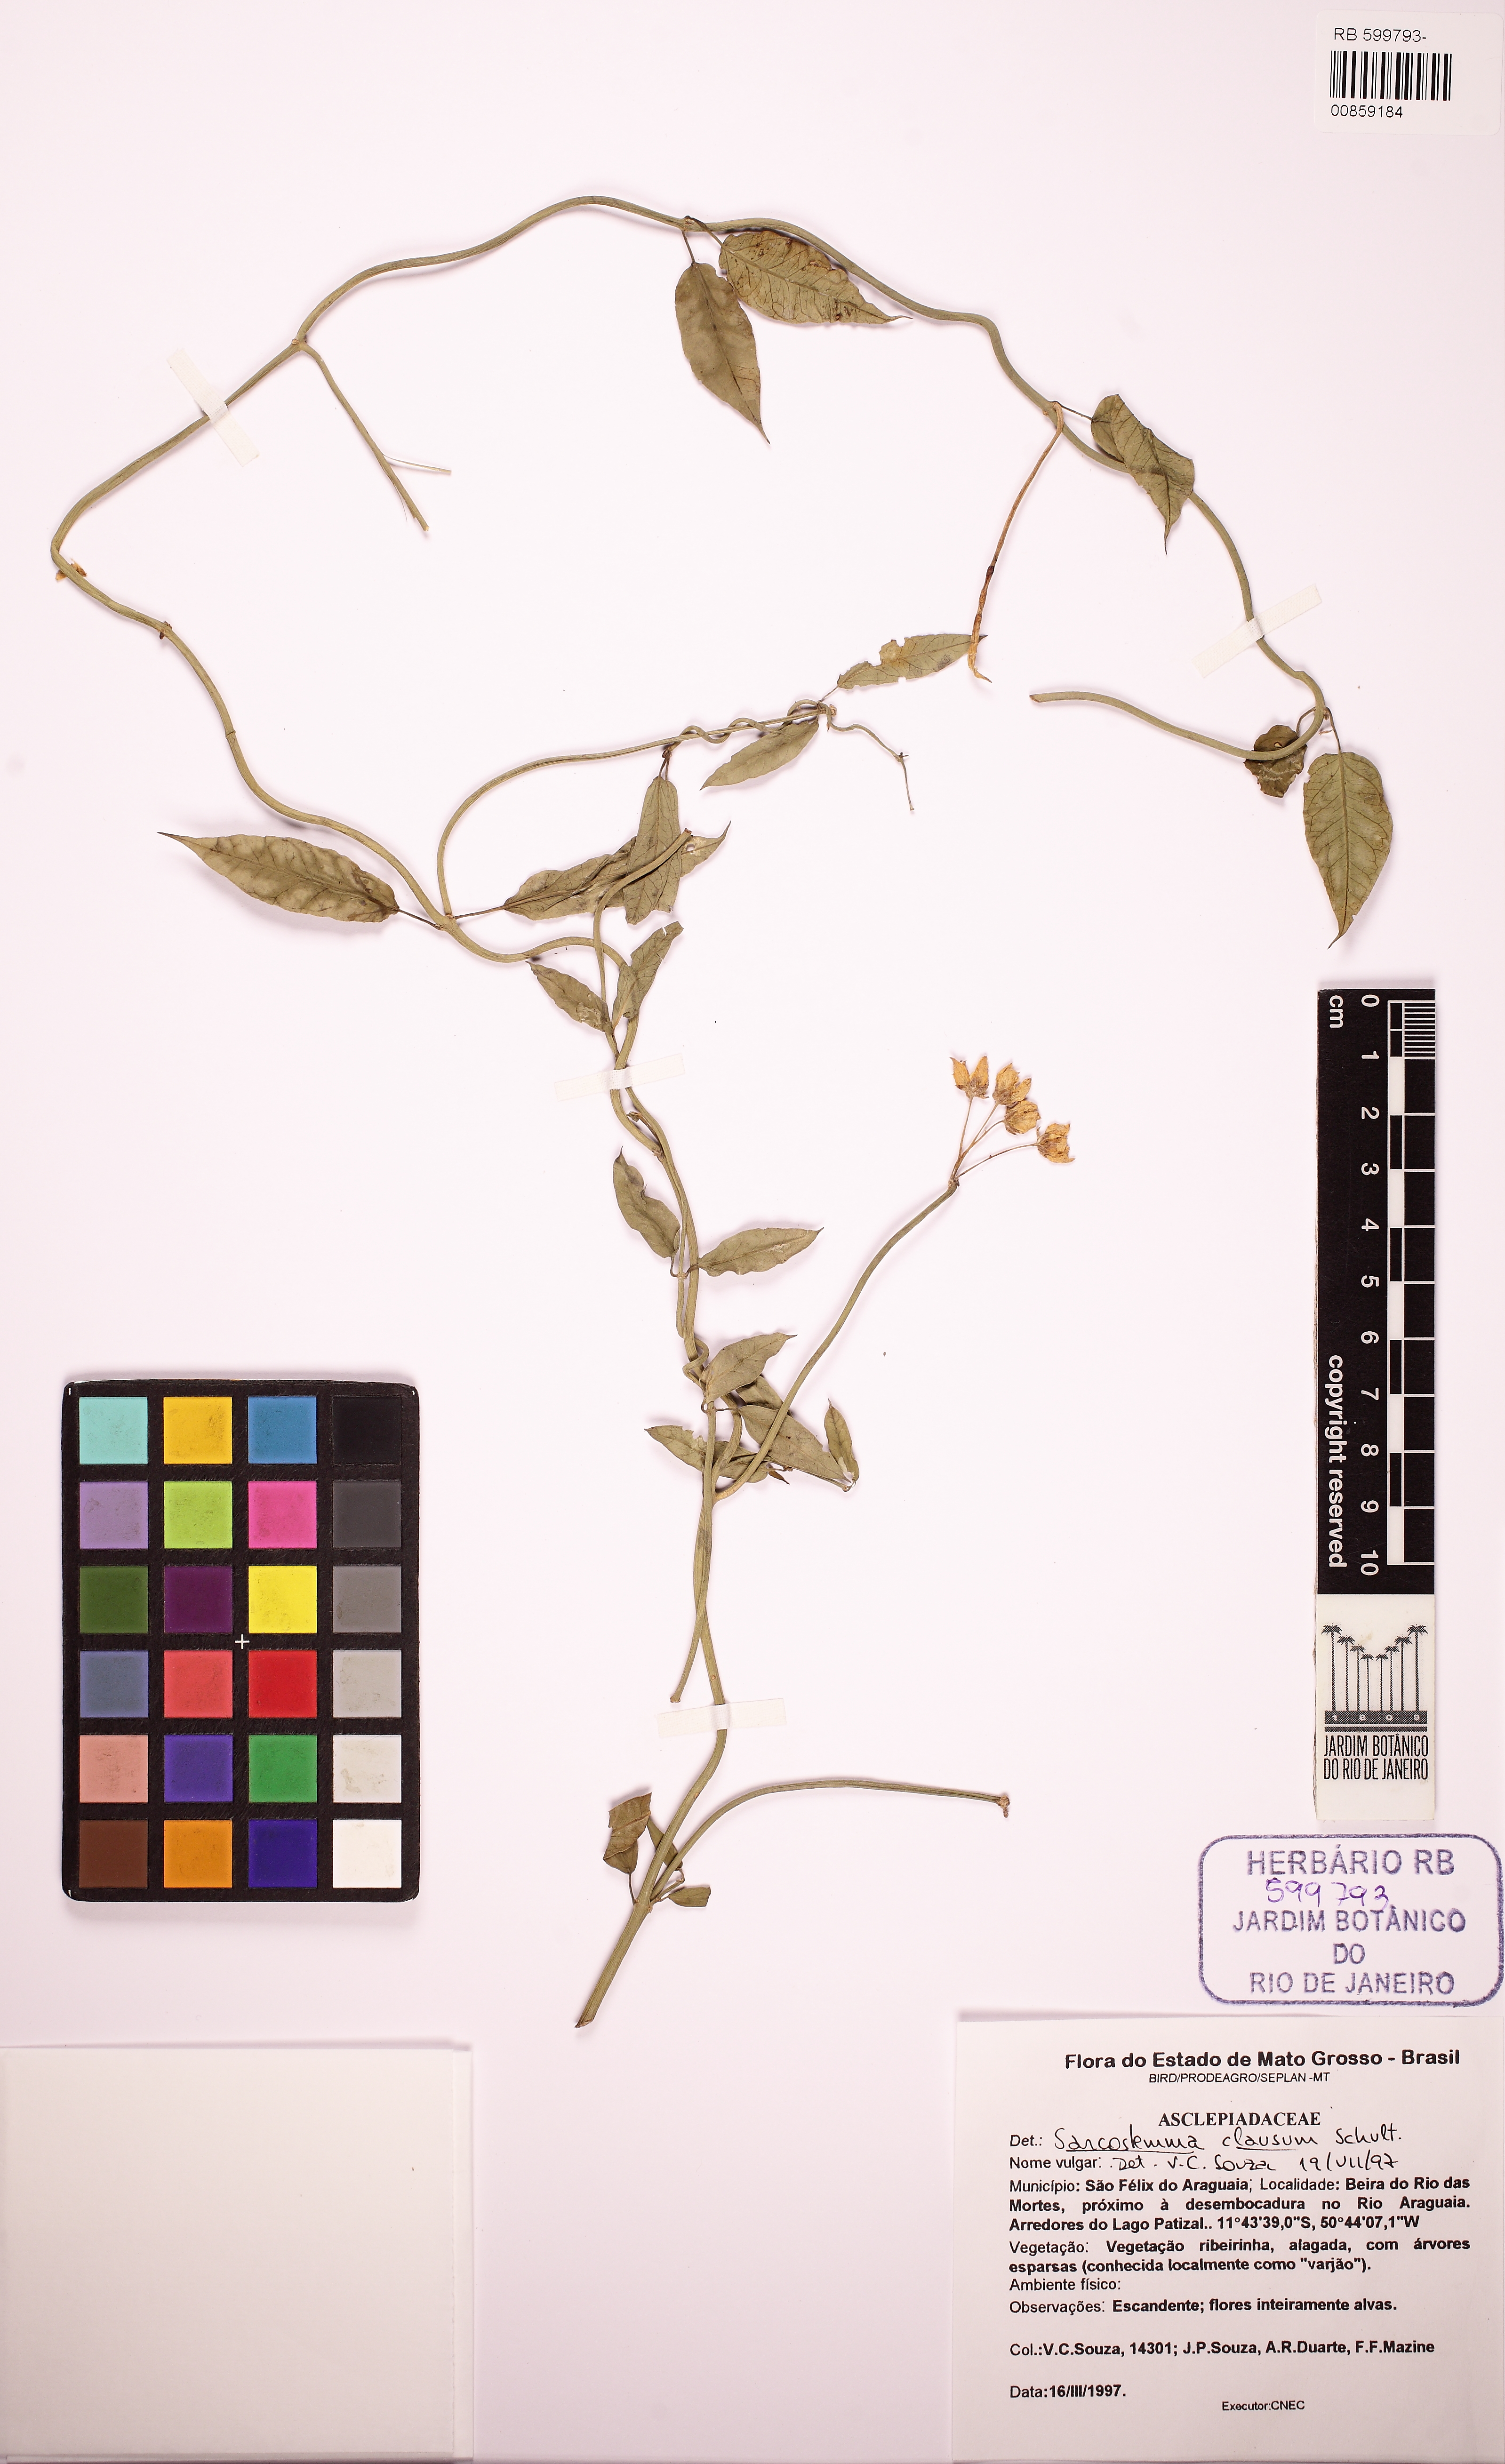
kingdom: Plantae
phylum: Tracheophyta
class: Magnoliopsida
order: Gentianales
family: Apocynaceae
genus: Funastrum
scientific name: Funastrum clausum
